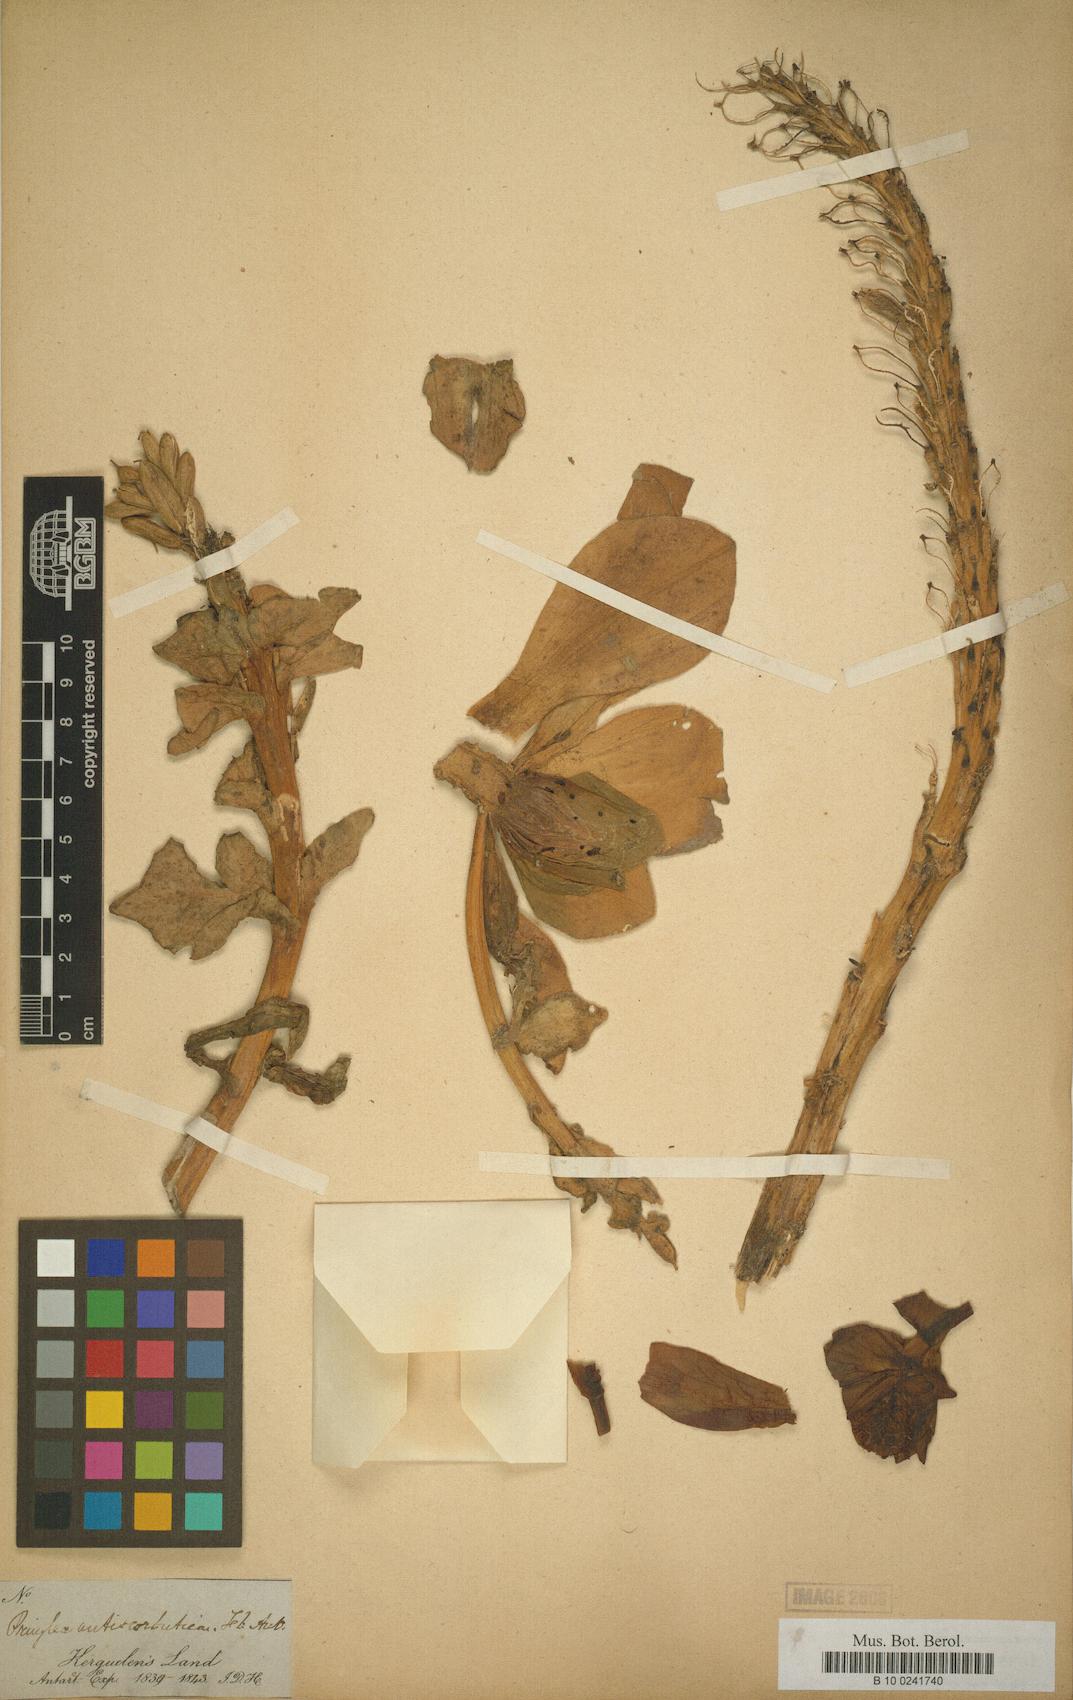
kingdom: Plantae
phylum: Tracheophyta
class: Magnoliopsida
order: Brassicales
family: Brassicaceae
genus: Pringlea
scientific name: Pringlea antiscorbutica
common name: Kerguelen-cabbage
